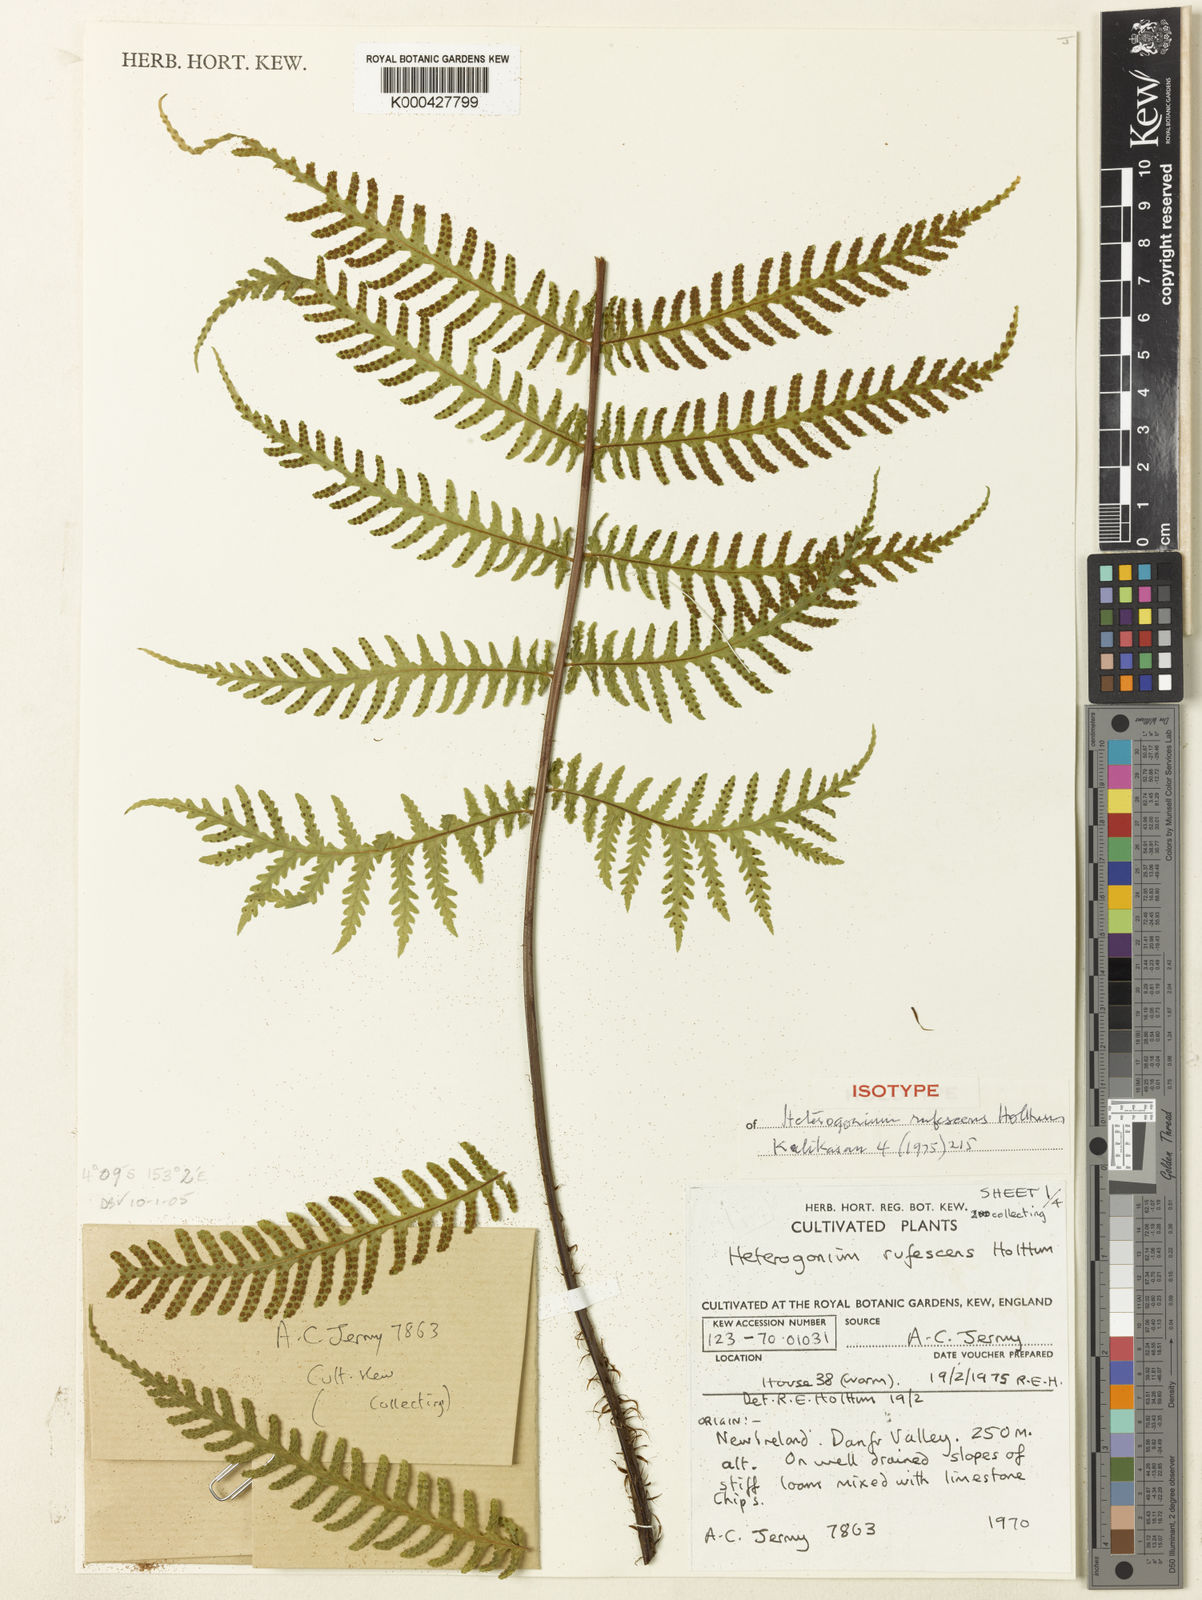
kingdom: Plantae
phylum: Tracheophyta
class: Polypodiopsida
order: Polypodiales
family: Tectariaceae
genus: Tectaria
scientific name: Tectaria jermyi
